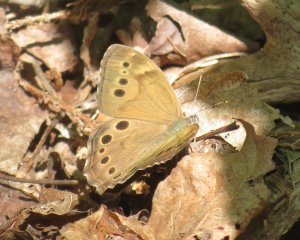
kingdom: Animalia
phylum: Arthropoda
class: Insecta
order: Lepidoptera
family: Nymphalidae
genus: Lethe
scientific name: Lethe anthedon
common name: Northern Pearly-Eye
